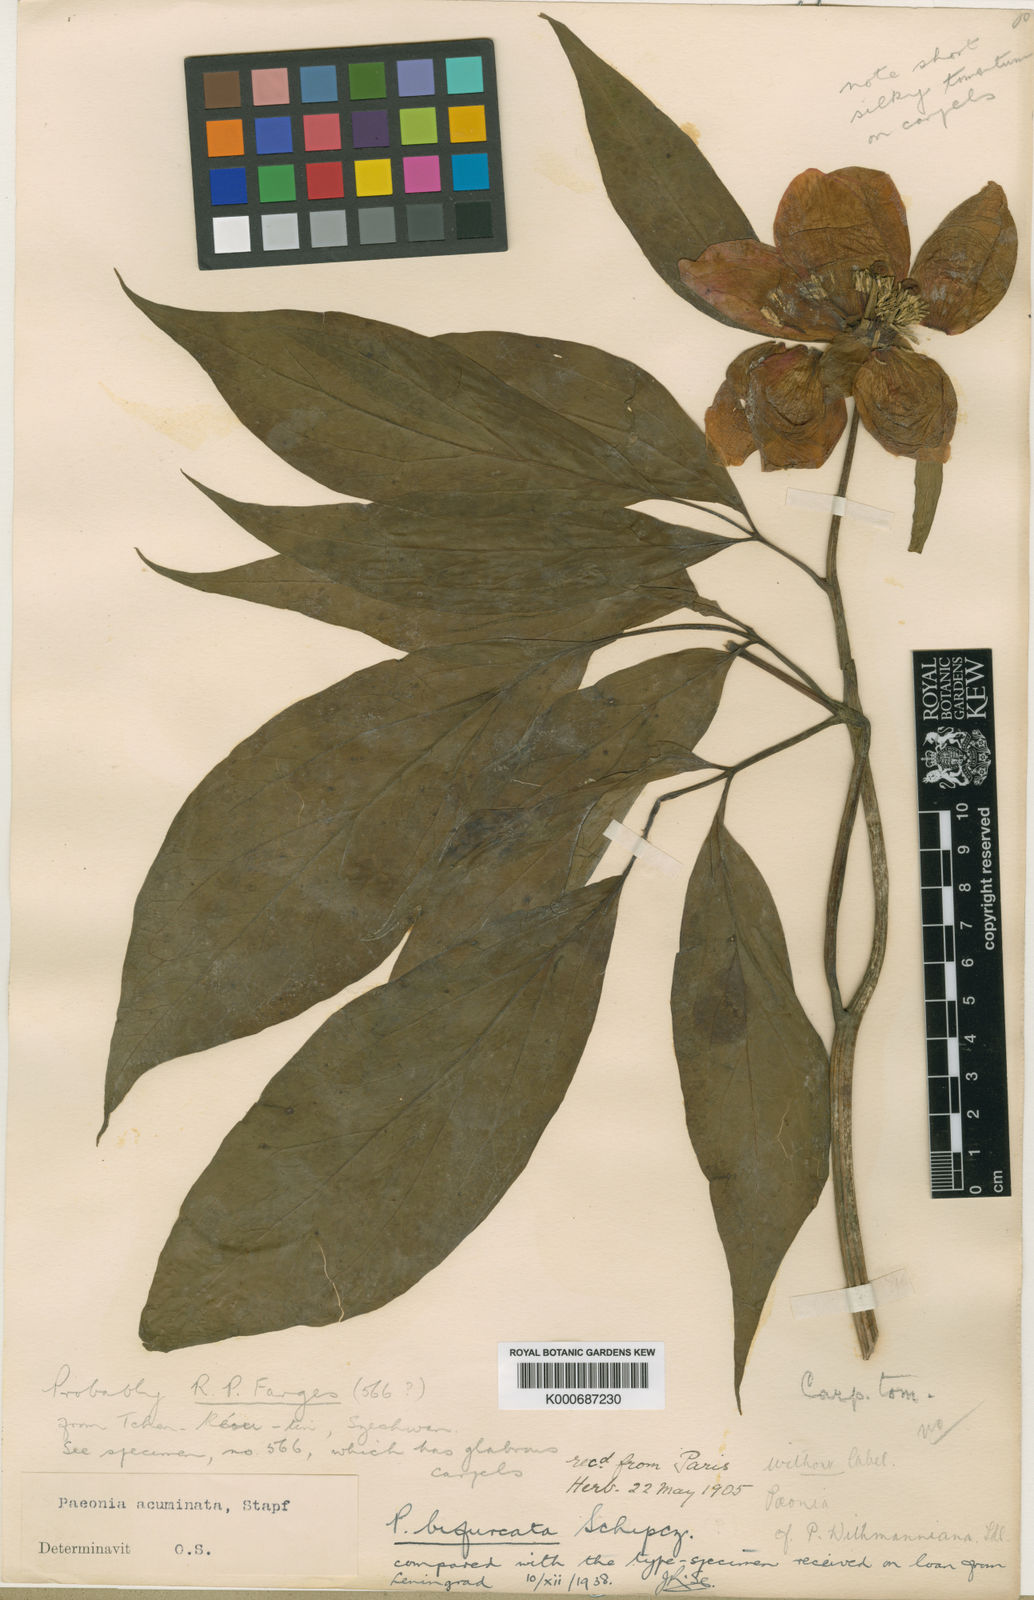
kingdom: Plantae
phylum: Tracheophyta
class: Magnoliopsida
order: Saxifragales
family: Paeoniaceae
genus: Paeonia
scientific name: Paeonia
